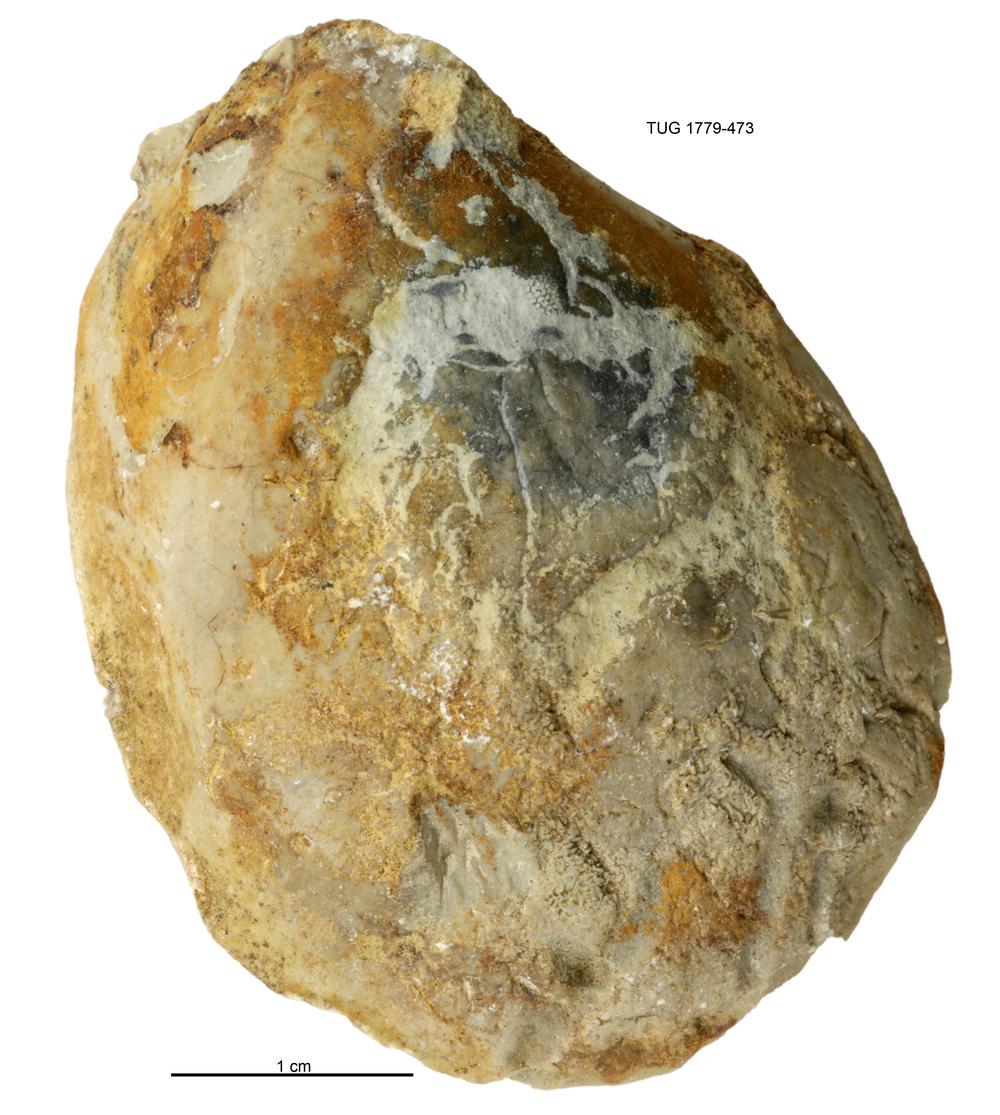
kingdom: Animalia
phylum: Mollusca
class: Bivalvia
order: Modiomorphida
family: Modiomorphidae
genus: Modiolopsis
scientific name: Modiolopsis
